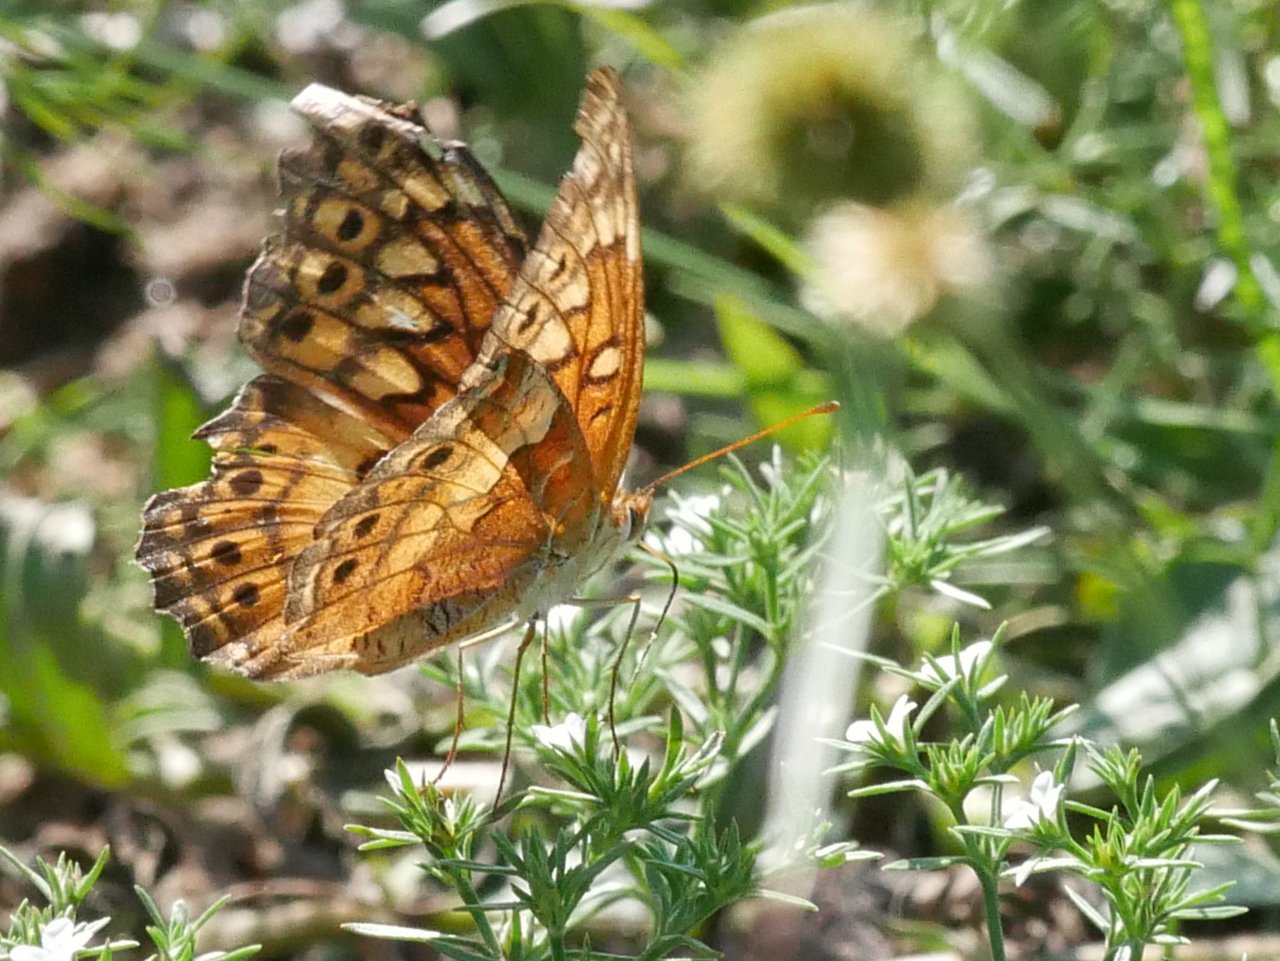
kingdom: Animalia
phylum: Arthropoda
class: Insecta
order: Lepidoptera
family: Nymphalidae
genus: Euptoieta
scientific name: Euptoieta claudia
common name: Variegated Fritillary
